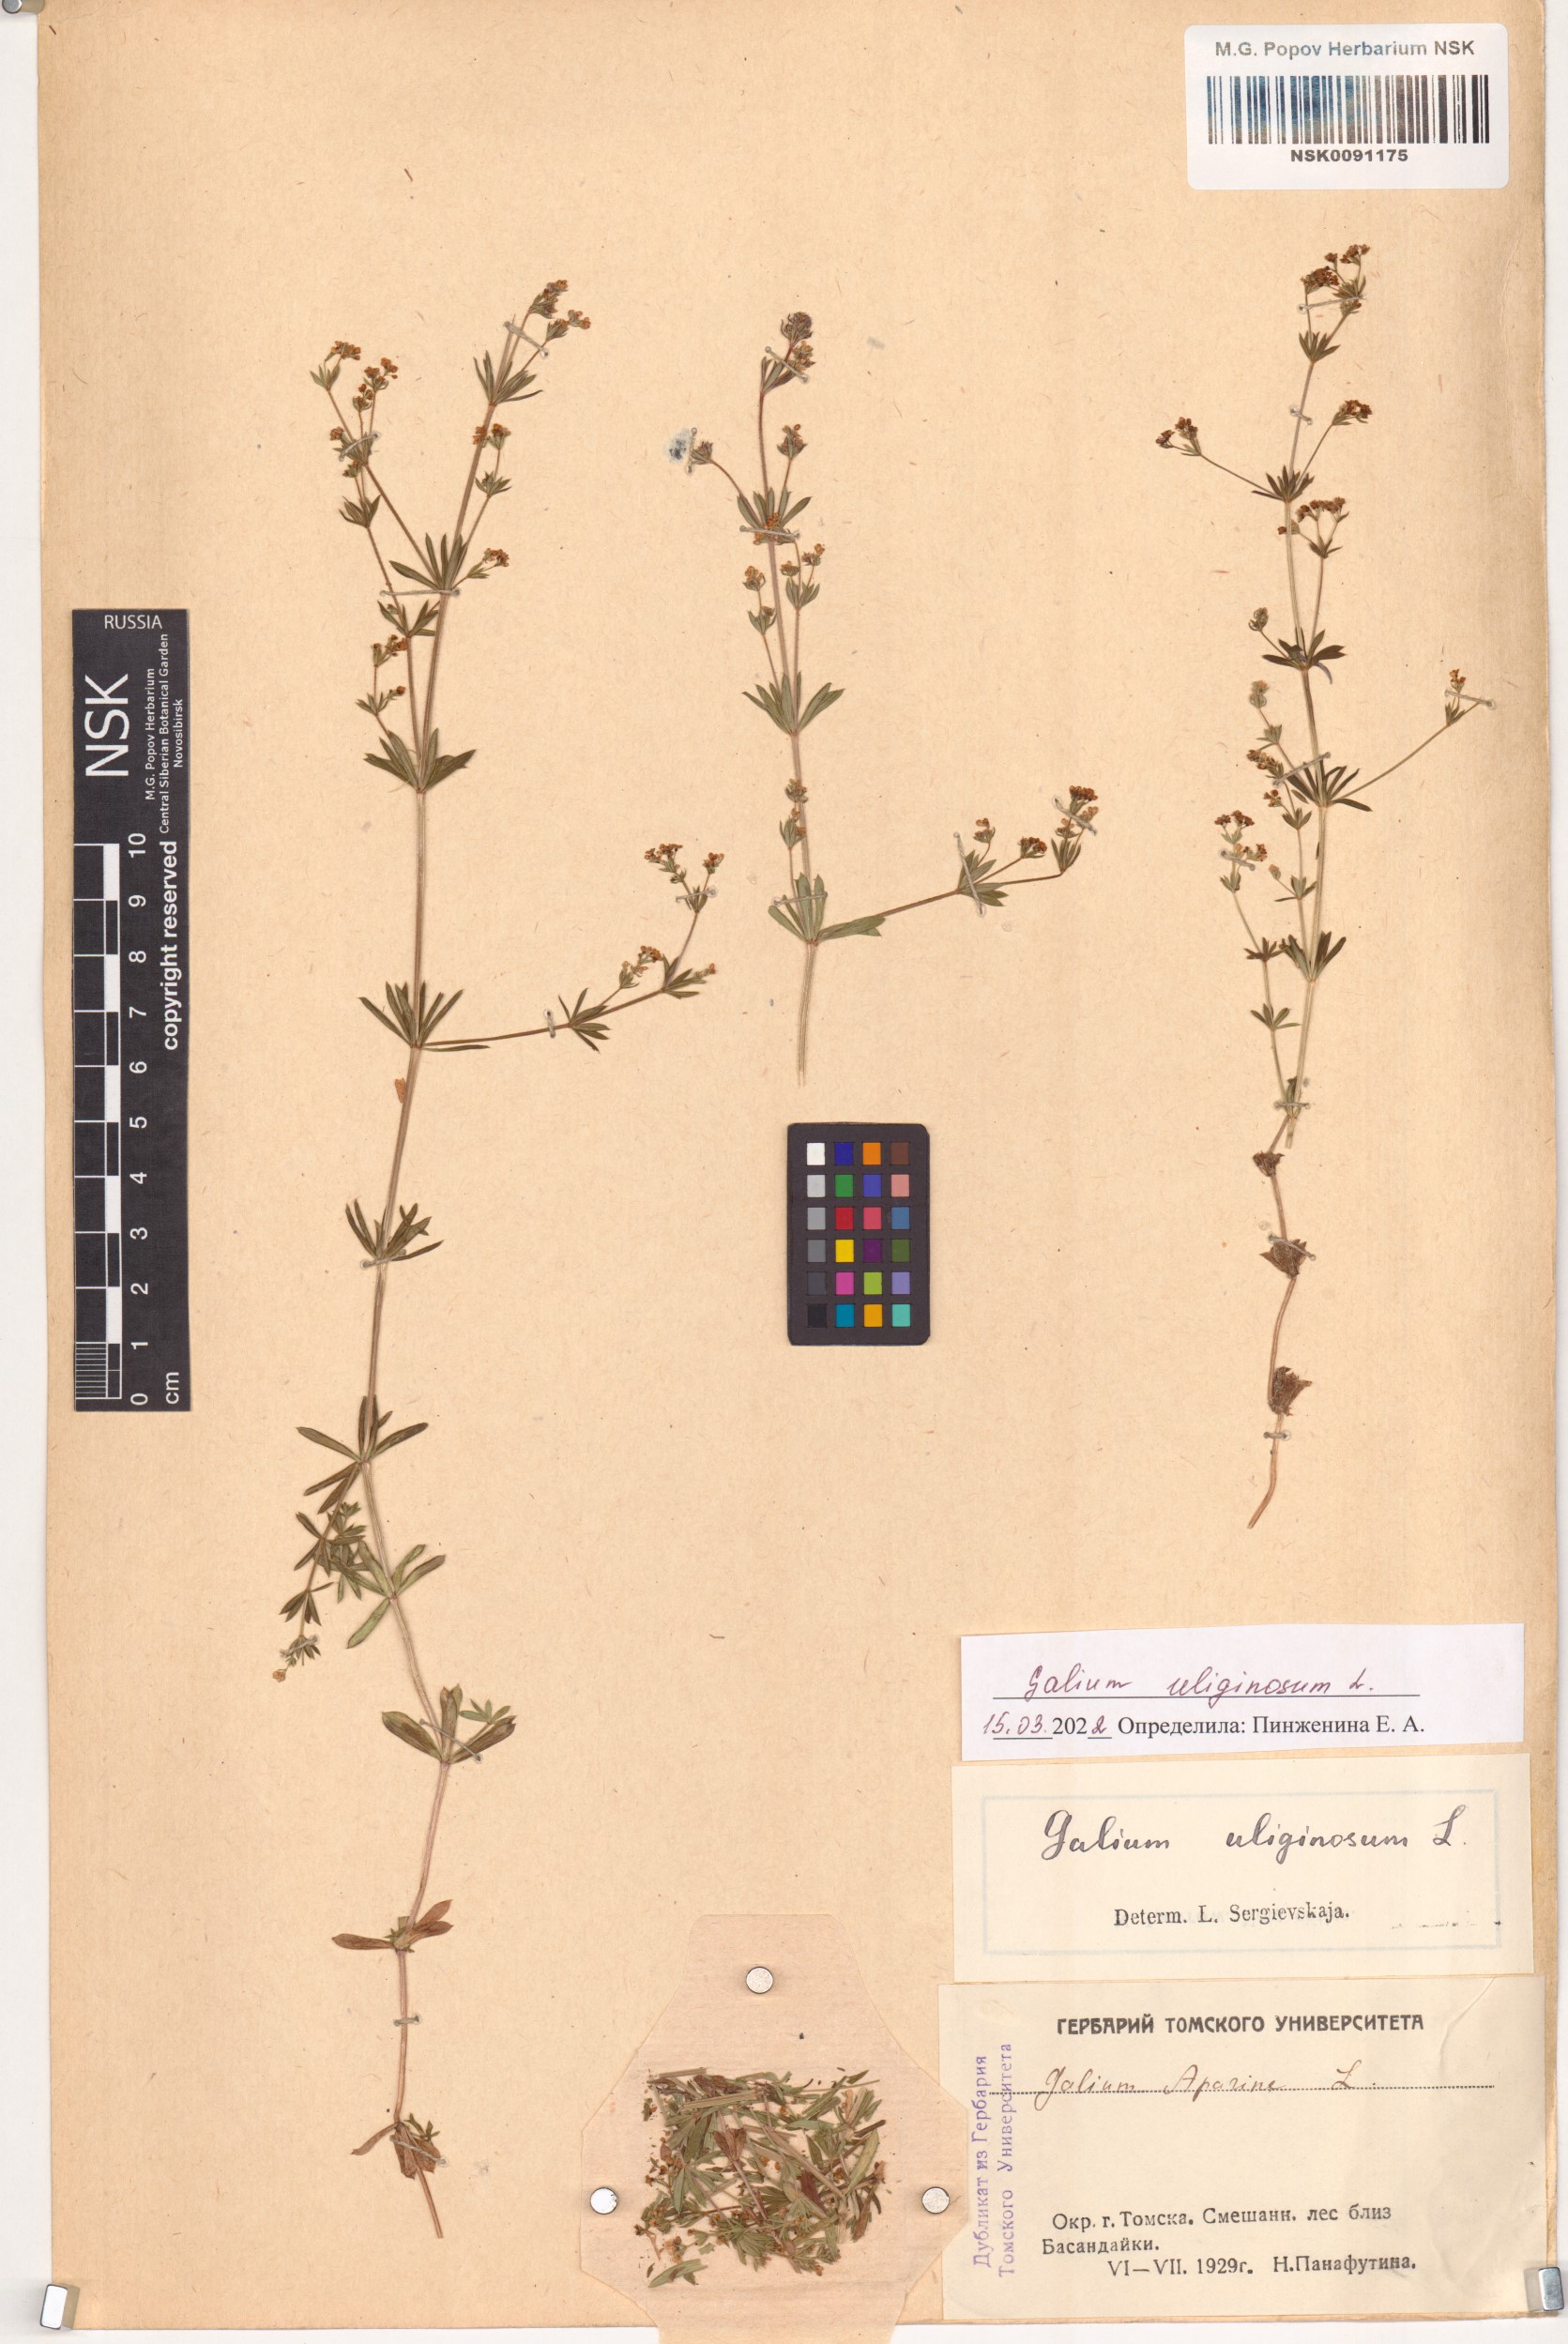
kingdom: Plantae
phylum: Tracheophyta
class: Magnoliopsida
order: Gentianales
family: Rubiaceae
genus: Galium
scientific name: Galium uliginosum
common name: Fen bedstraw
